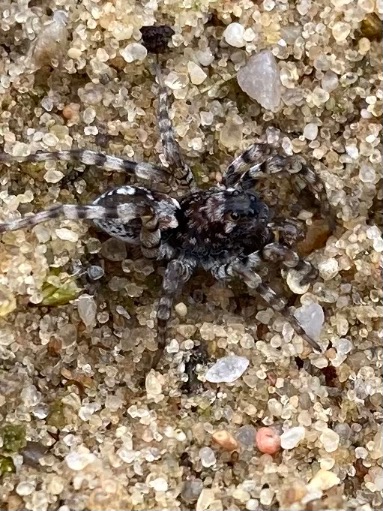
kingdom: Animalia
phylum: Arthropoda
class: Arachnida
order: Araneae
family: Lycosidae
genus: Arctosa
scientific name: Arctosa perita
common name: Klitgraveedderkop
